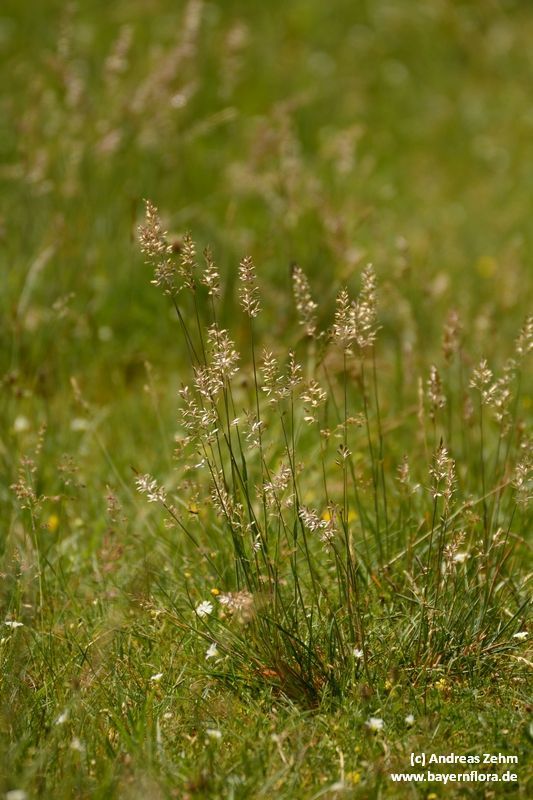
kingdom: Plantae
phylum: Tracheophyta
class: Liliopsida
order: Poales
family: Poaceae
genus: Koeleria
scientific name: Koeleria pyramidata
